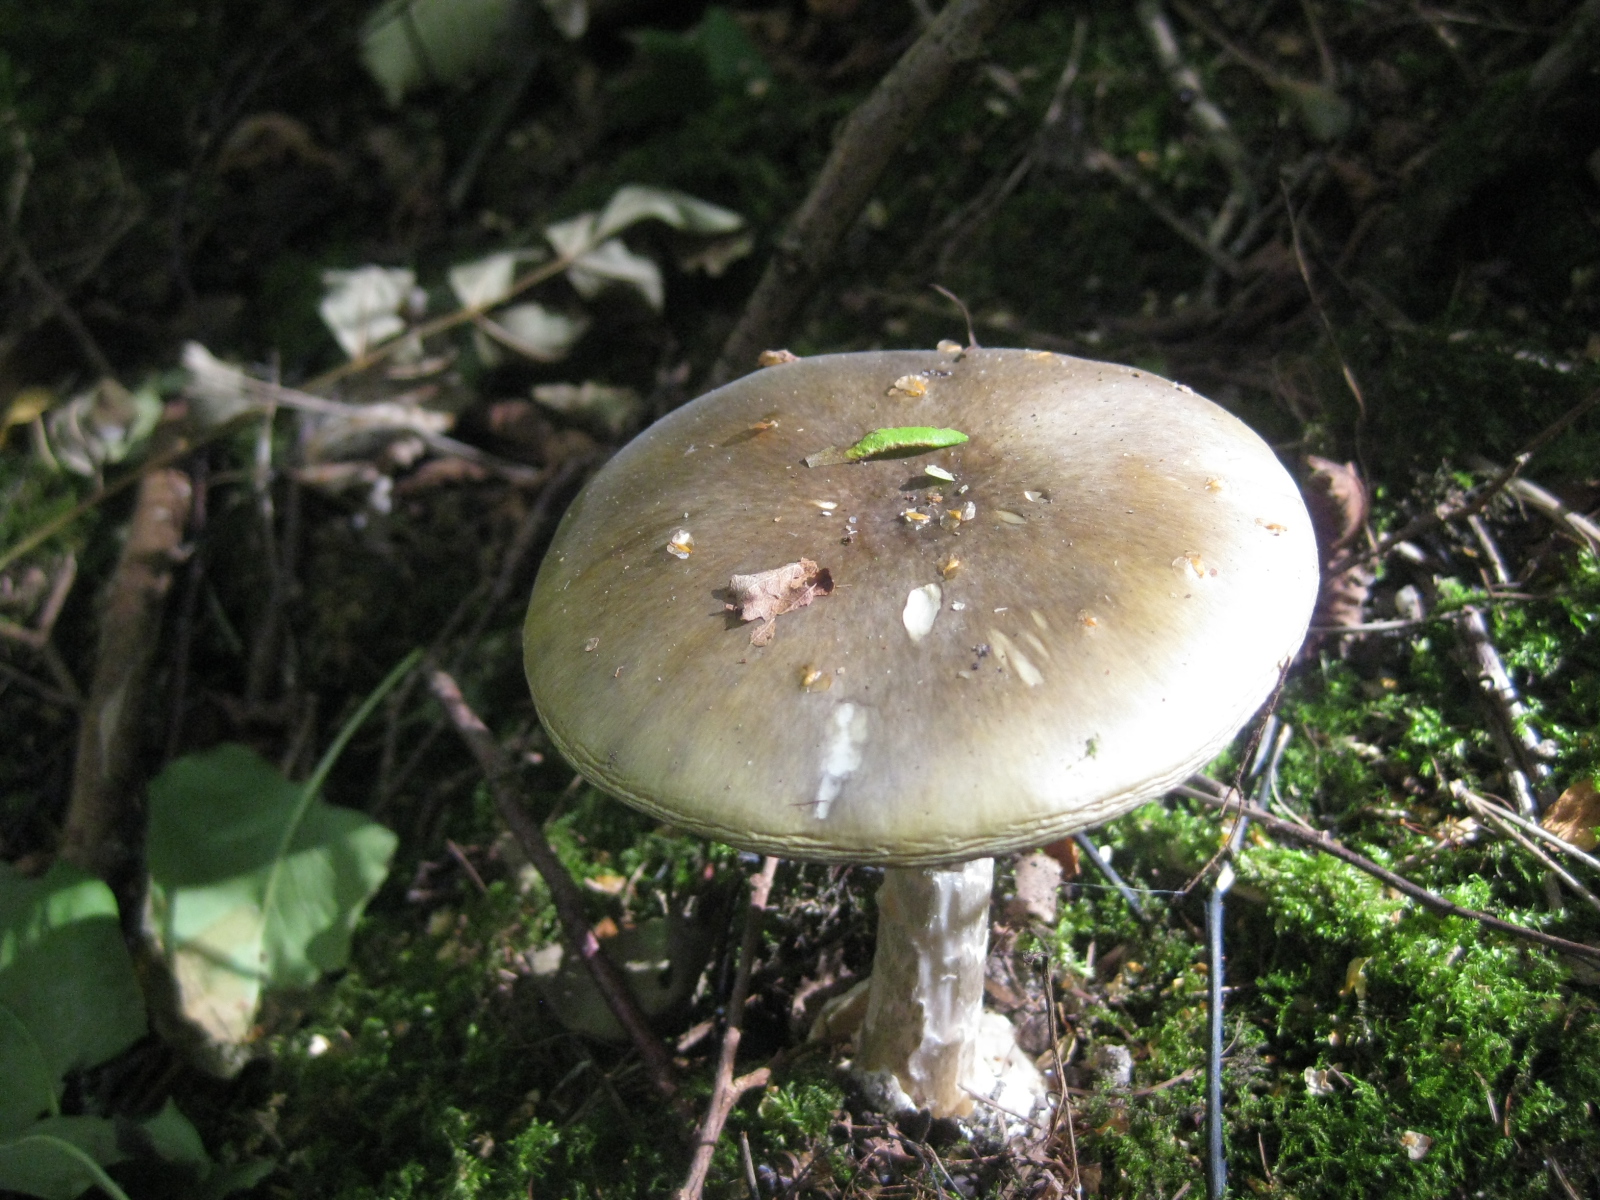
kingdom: Fungi
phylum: Basidiomycota
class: Agaricomycetes
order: Agaricales
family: Amanitaceae
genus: Amanita
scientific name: Amanita phalloides
